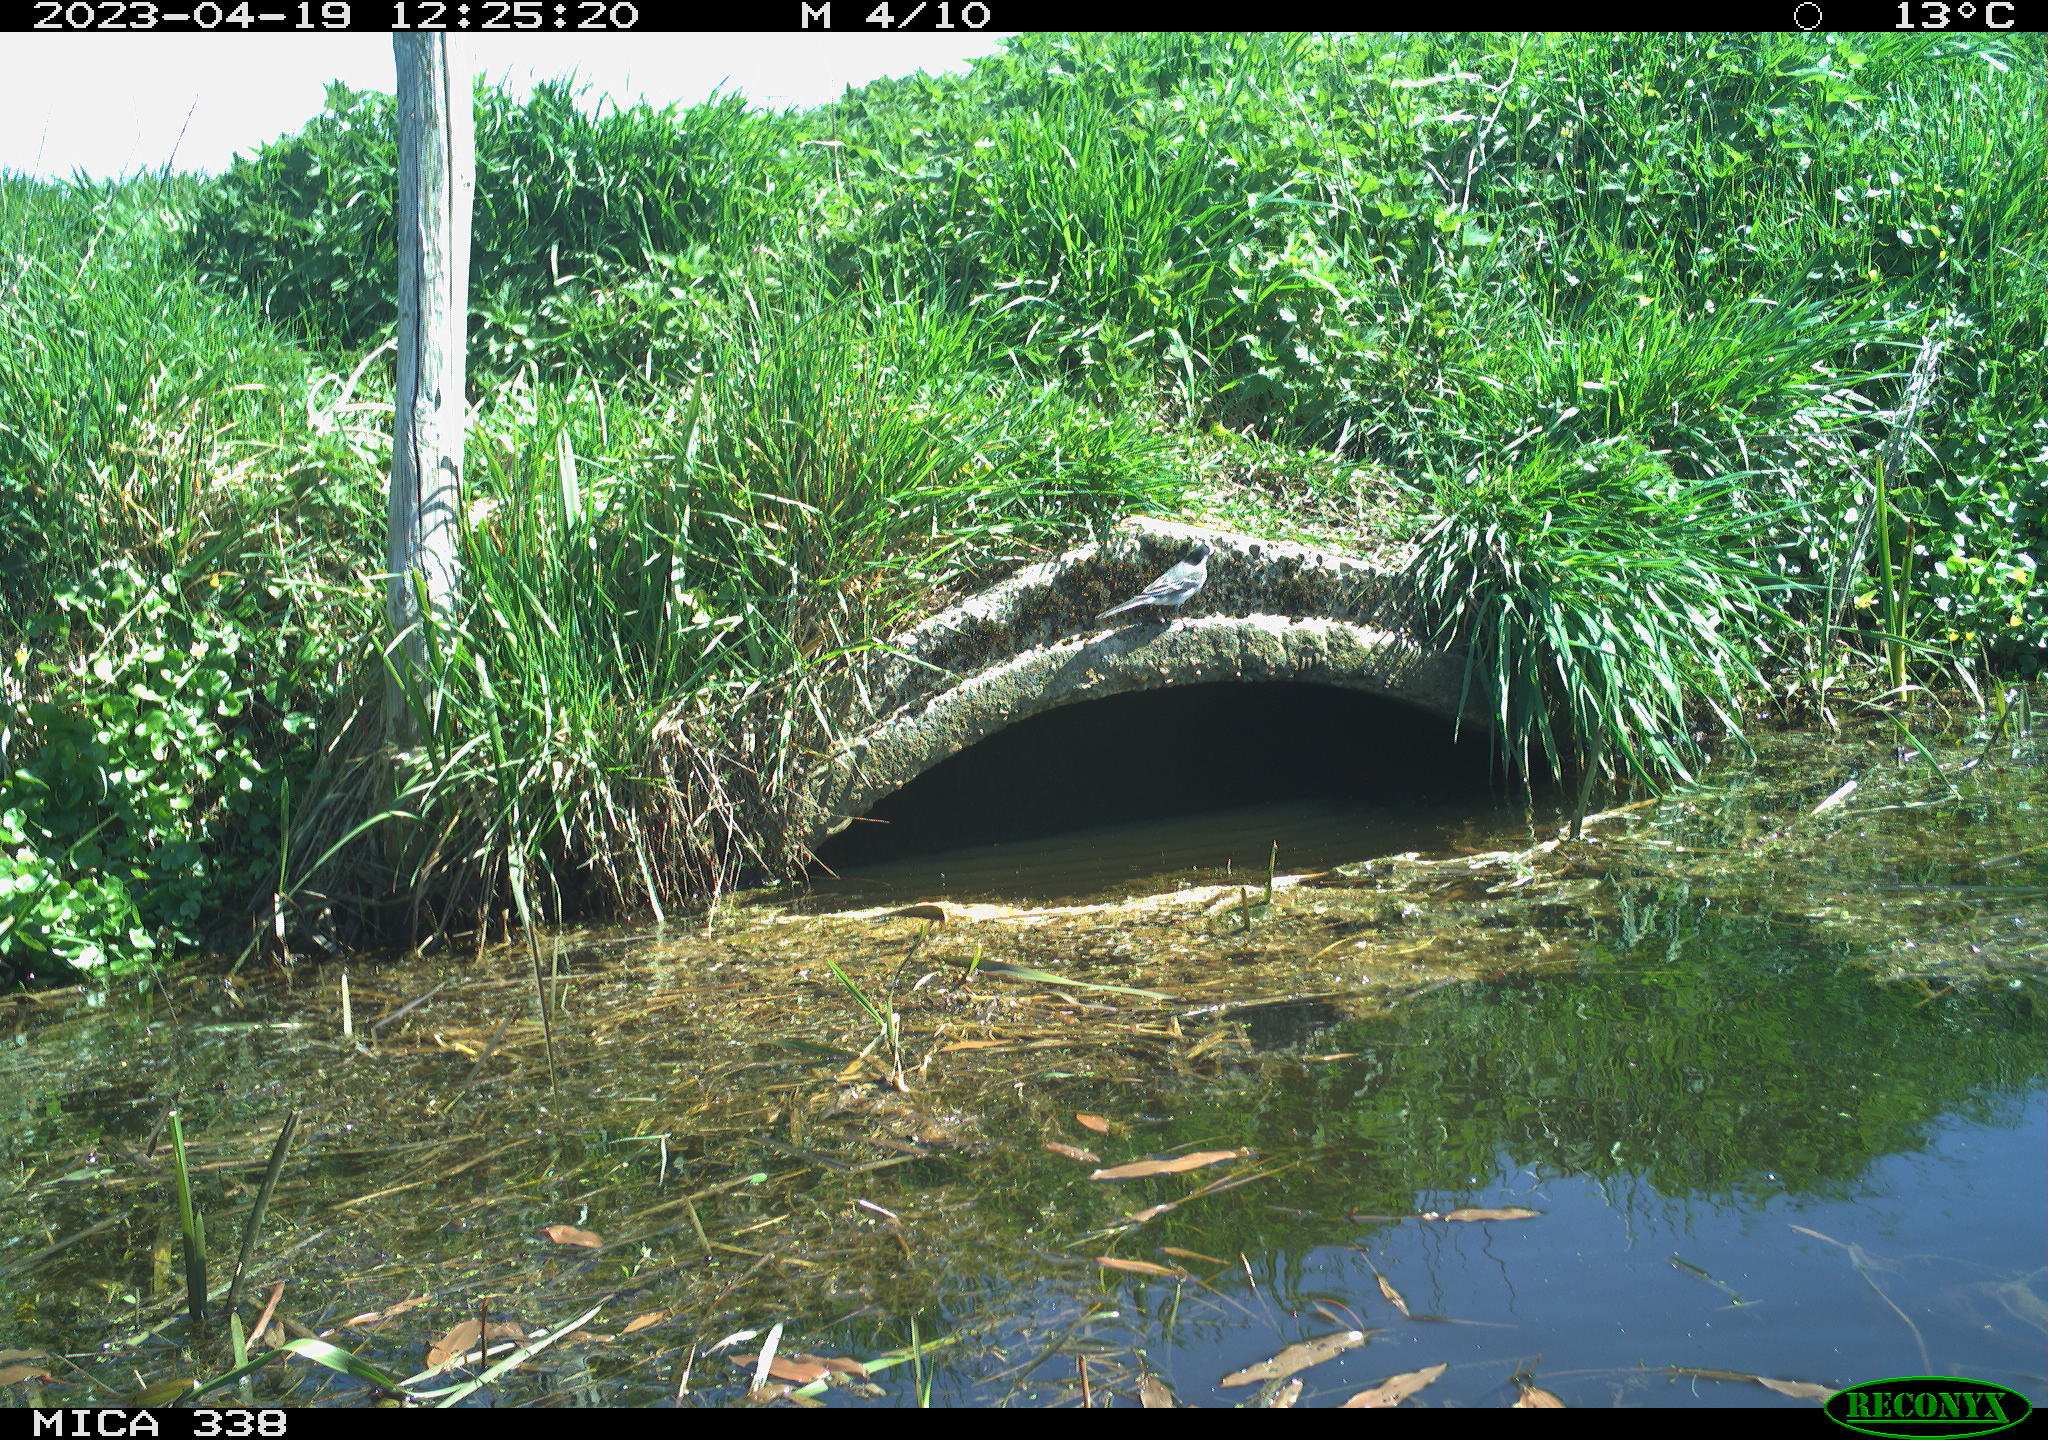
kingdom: Animalia
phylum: Chordata
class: Aves
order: Gruiformes
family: Rallidae
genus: Gallinula
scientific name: Gallinula chloropus
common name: Common moorhen
